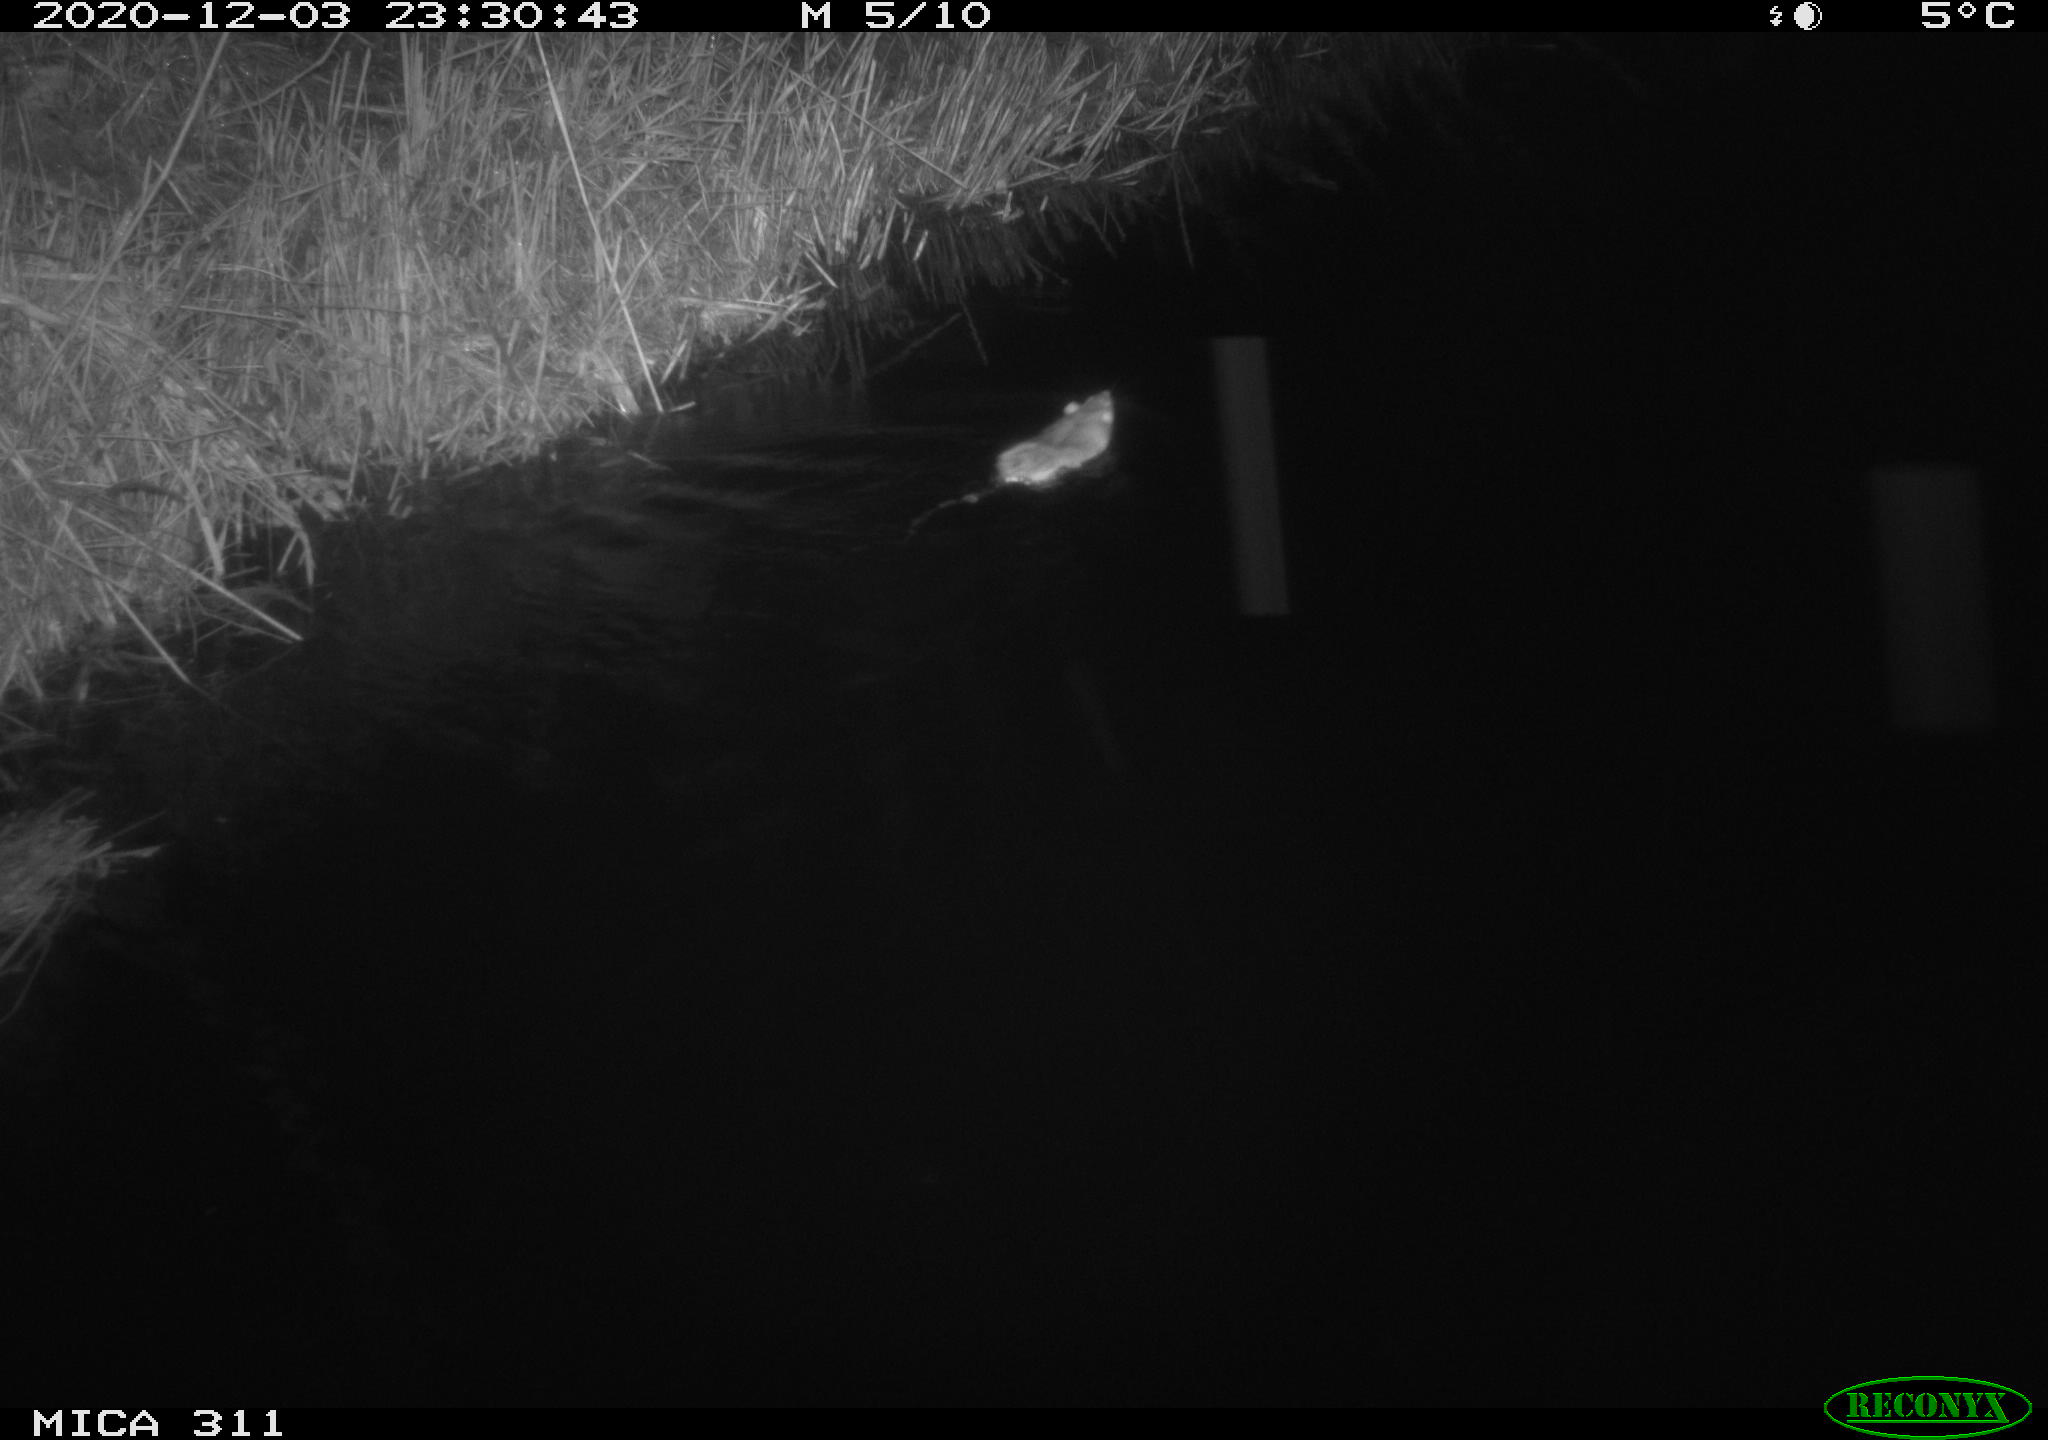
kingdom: Animalia
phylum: Chordata
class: Mammalia
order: Rodentia
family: Muridae
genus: Rattus
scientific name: Rattus norvegicus
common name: Brown rat
